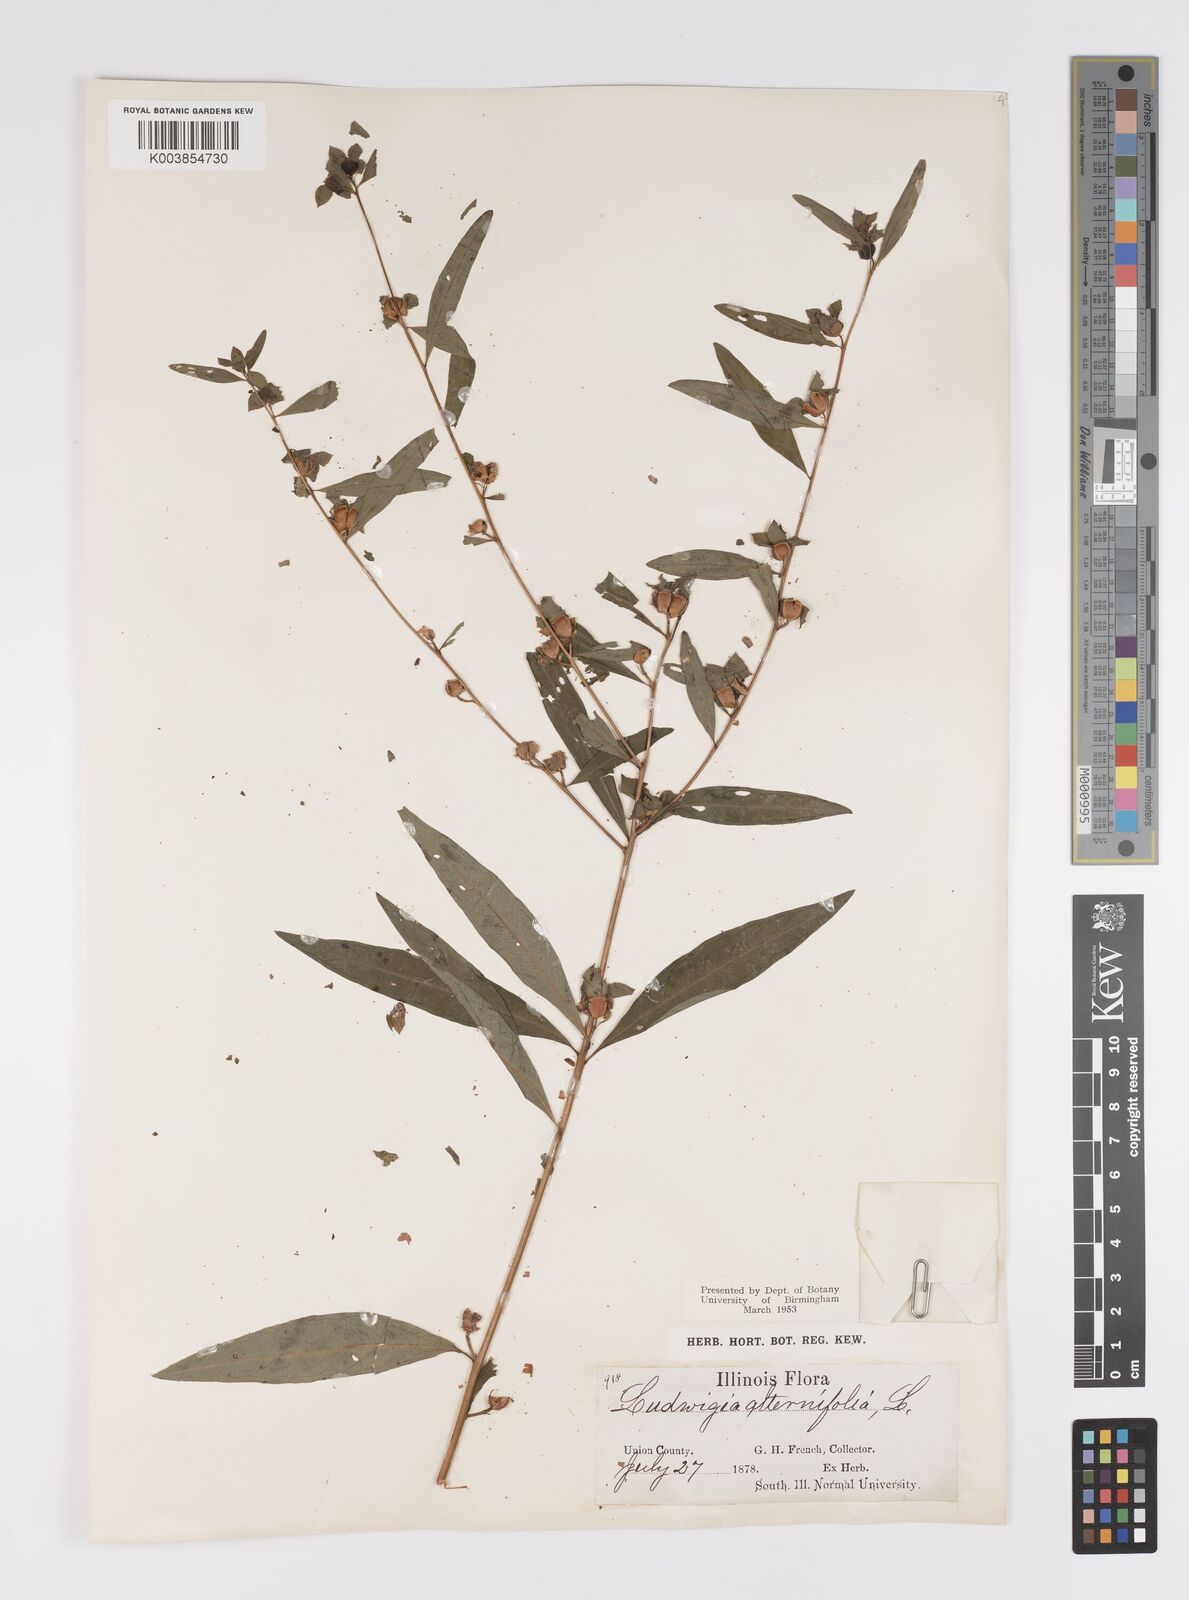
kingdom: Plantae
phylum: Tracheophyta
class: Magnoliopsida
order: Myrtales
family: Onagraceae
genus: Ludwigia
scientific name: Ludwigia alternifolia
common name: Rattlebox
